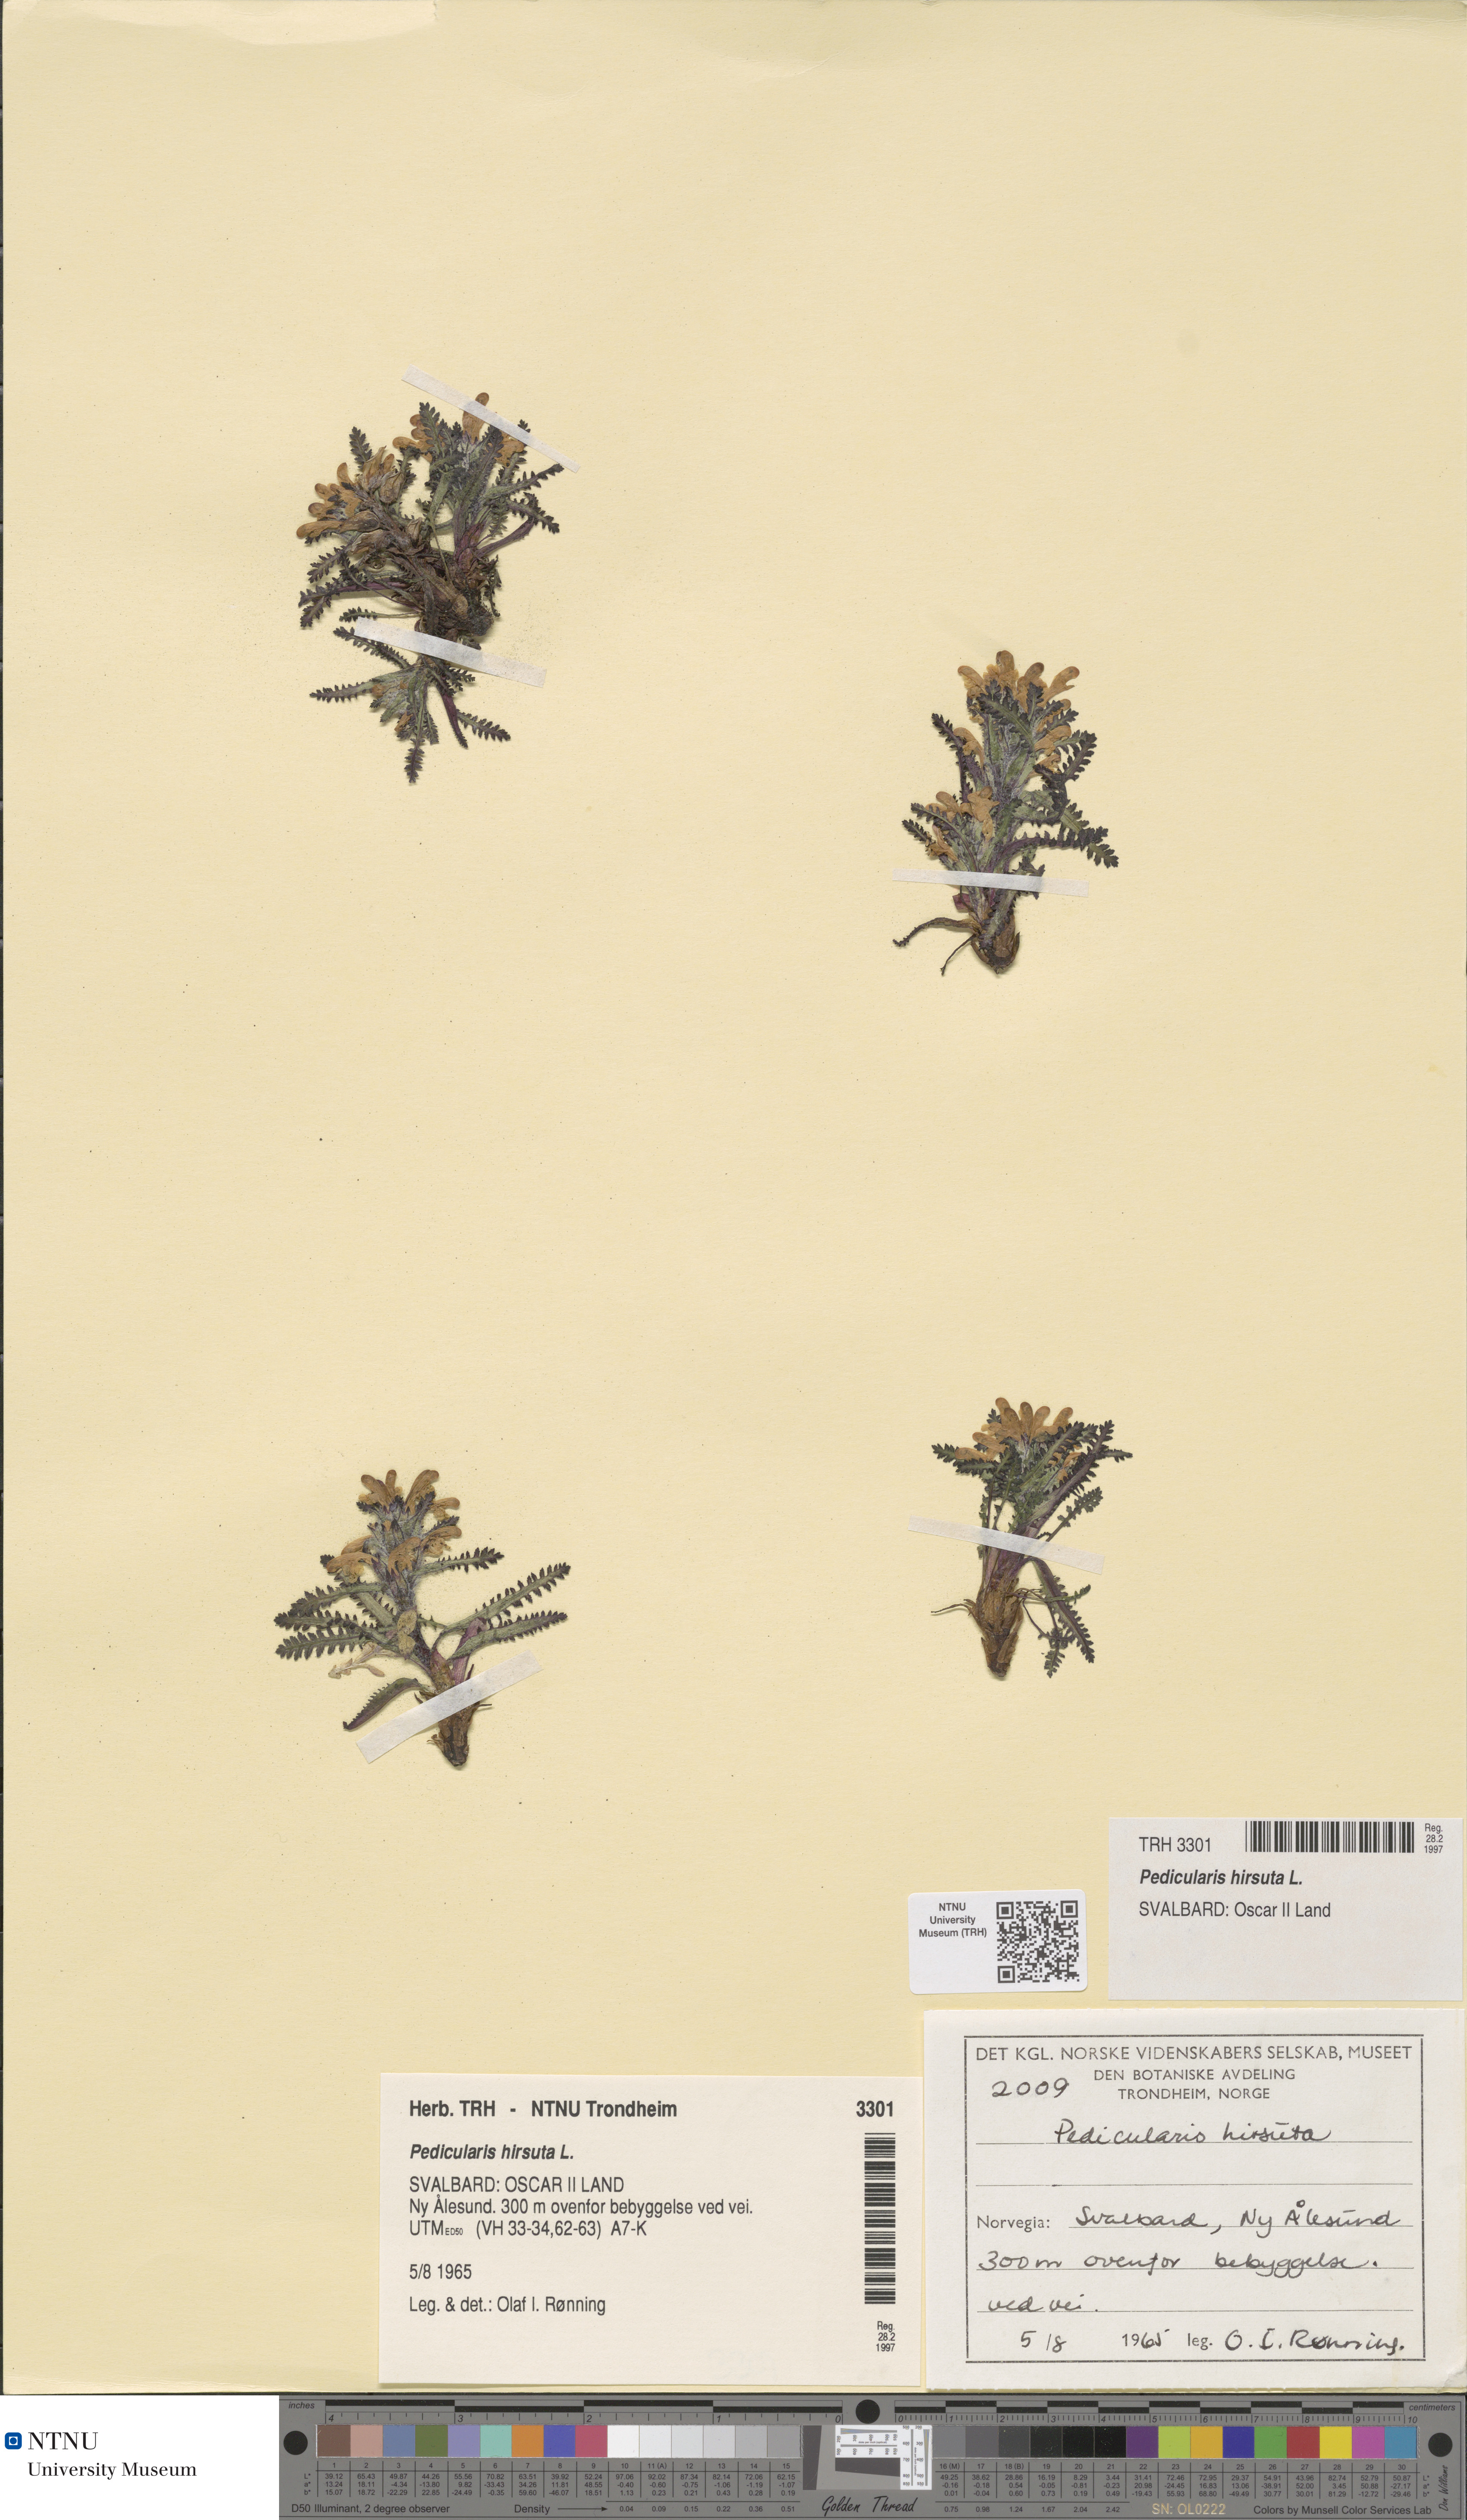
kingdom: Plantae
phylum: Tracheophyta
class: Magnoliopsida
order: Lamiales
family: Orobanchaceae
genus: Pedicularis
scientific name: Pedicularis hirsuta
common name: Hairy lousewort
